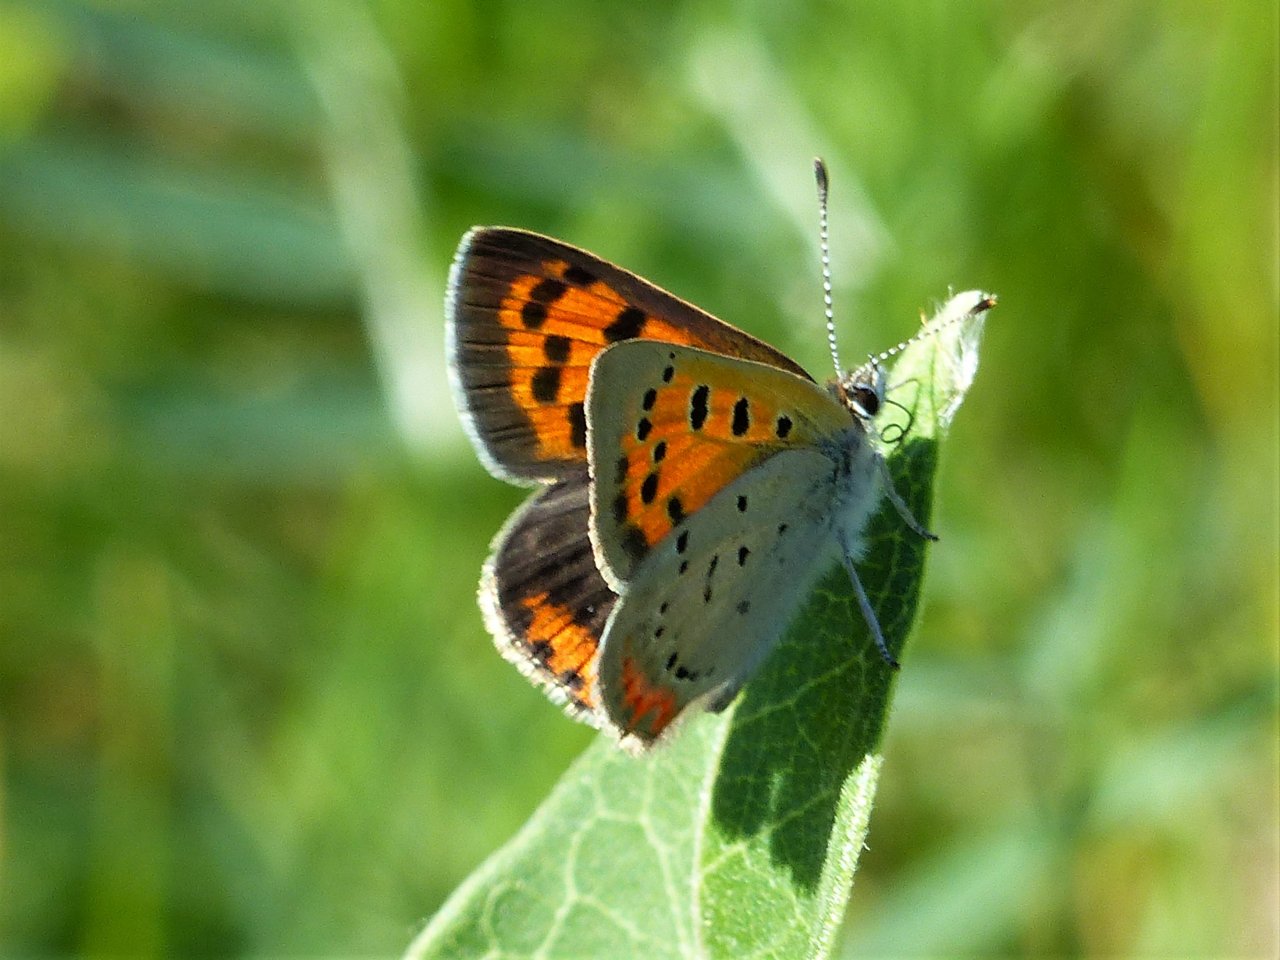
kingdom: Animalia
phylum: Arthropoda
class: Insecta
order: Lepidoptera
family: Lycaenidae
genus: Lycaena
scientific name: Lycaena phlaeas
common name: American Copper
